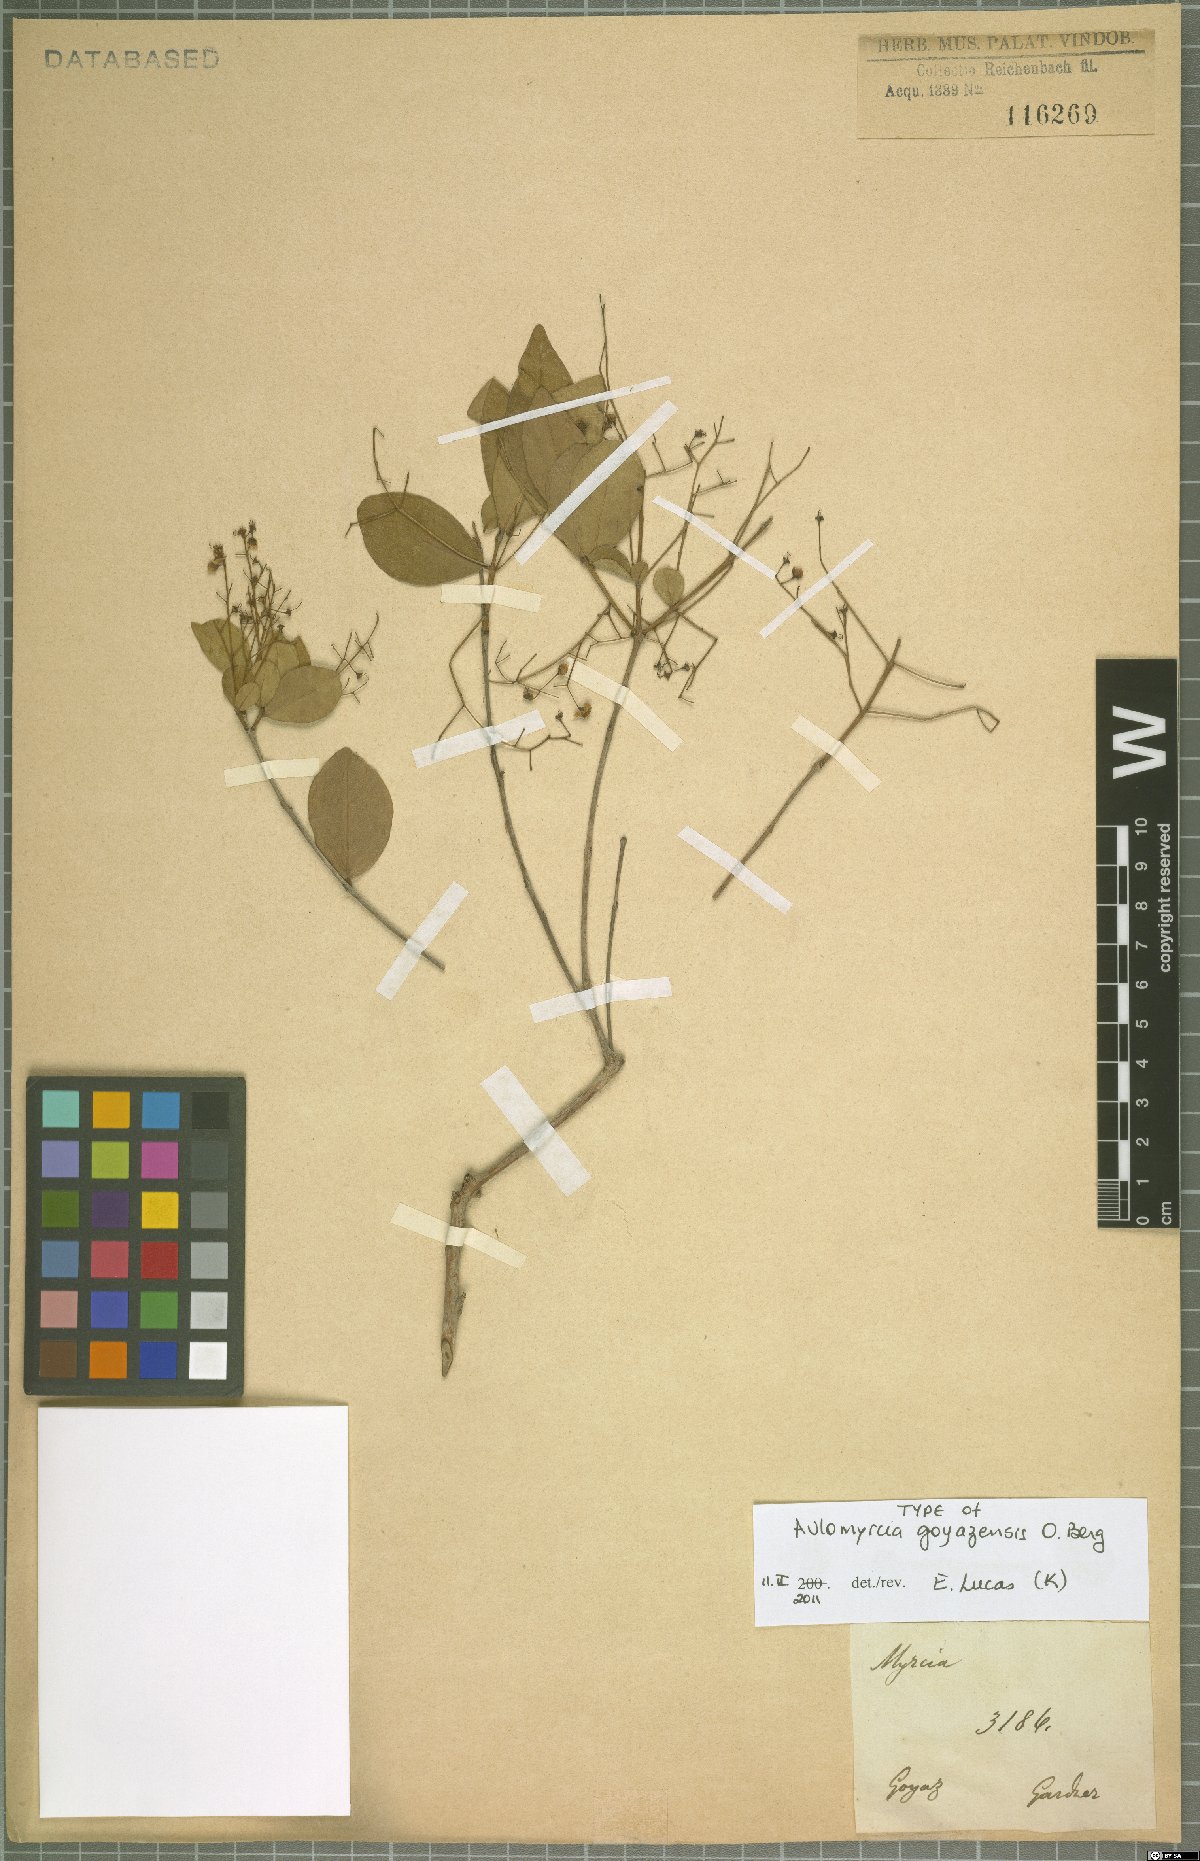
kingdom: Plantae
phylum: Tracheophyta
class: Magnoliopsida
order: Myrtales
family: Myrtaceae
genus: Myrcia
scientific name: Myrcia heringeriana
